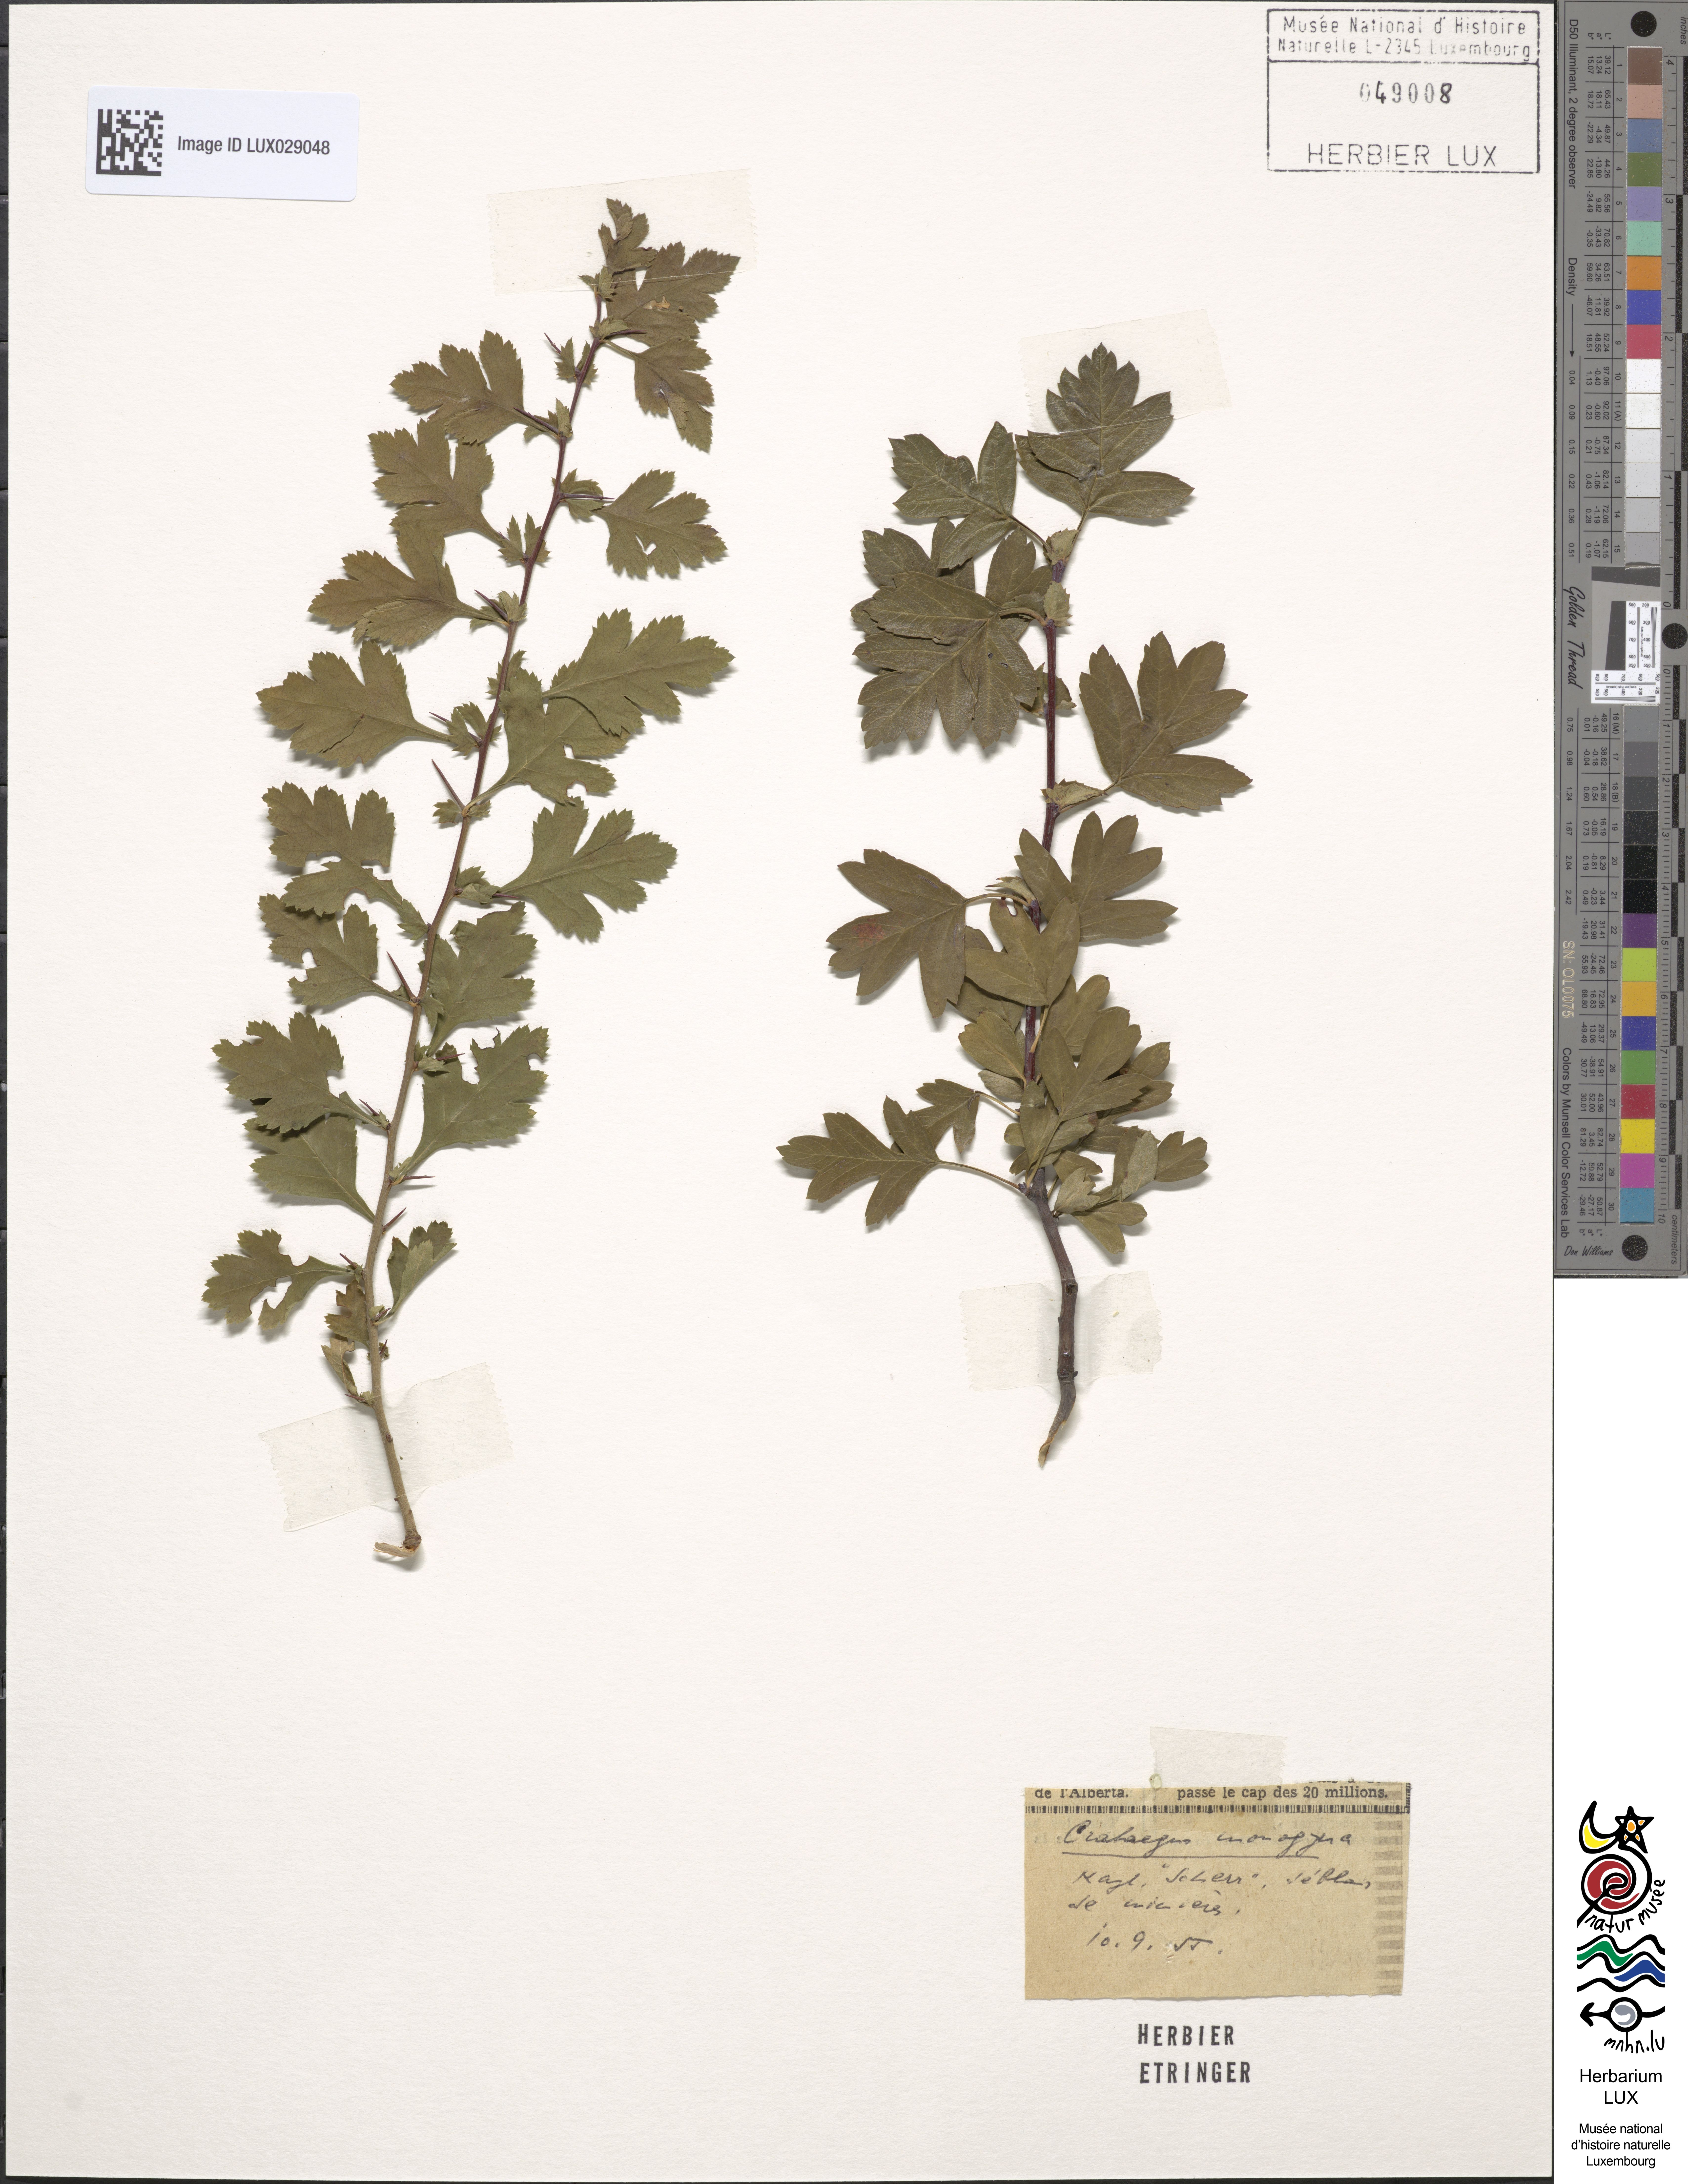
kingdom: Plantae
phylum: Tracheophyta
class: Magnoliopsida
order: Rosales
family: Rosaceae
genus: Crataegus
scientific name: Crataegus monogyna
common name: Hawthorn
